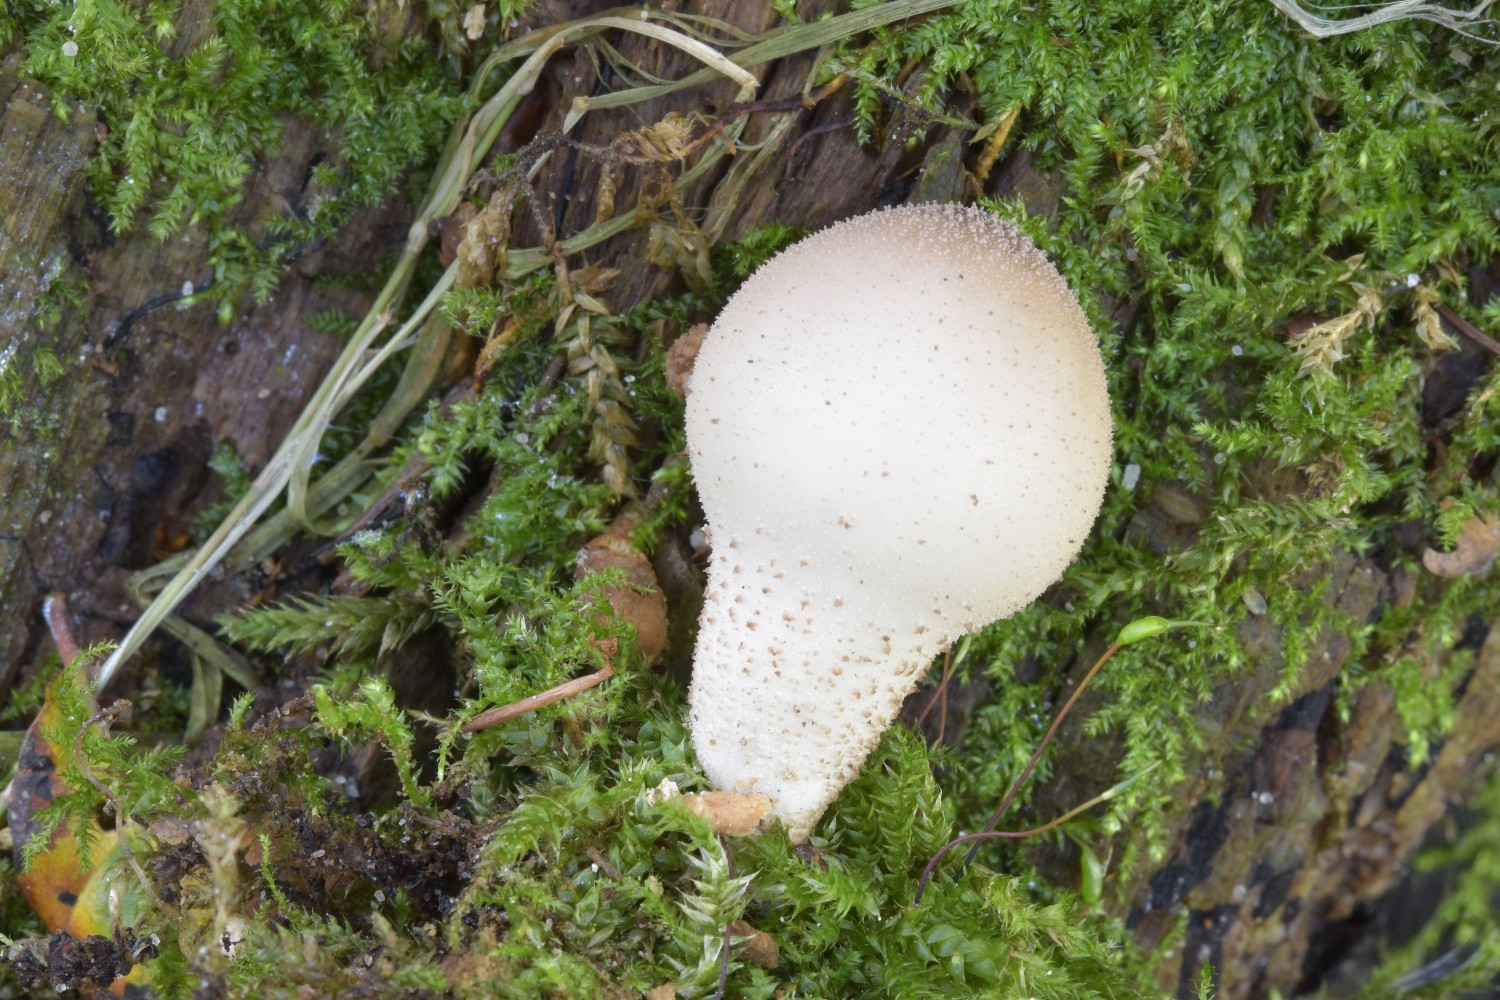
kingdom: Fungi
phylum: Basidiomycota
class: Agaricomycetes
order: Agaricales
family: Lycoperdaceae
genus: Apioperdon
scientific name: Apioperdon pyriforme
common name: pære-støvbold
